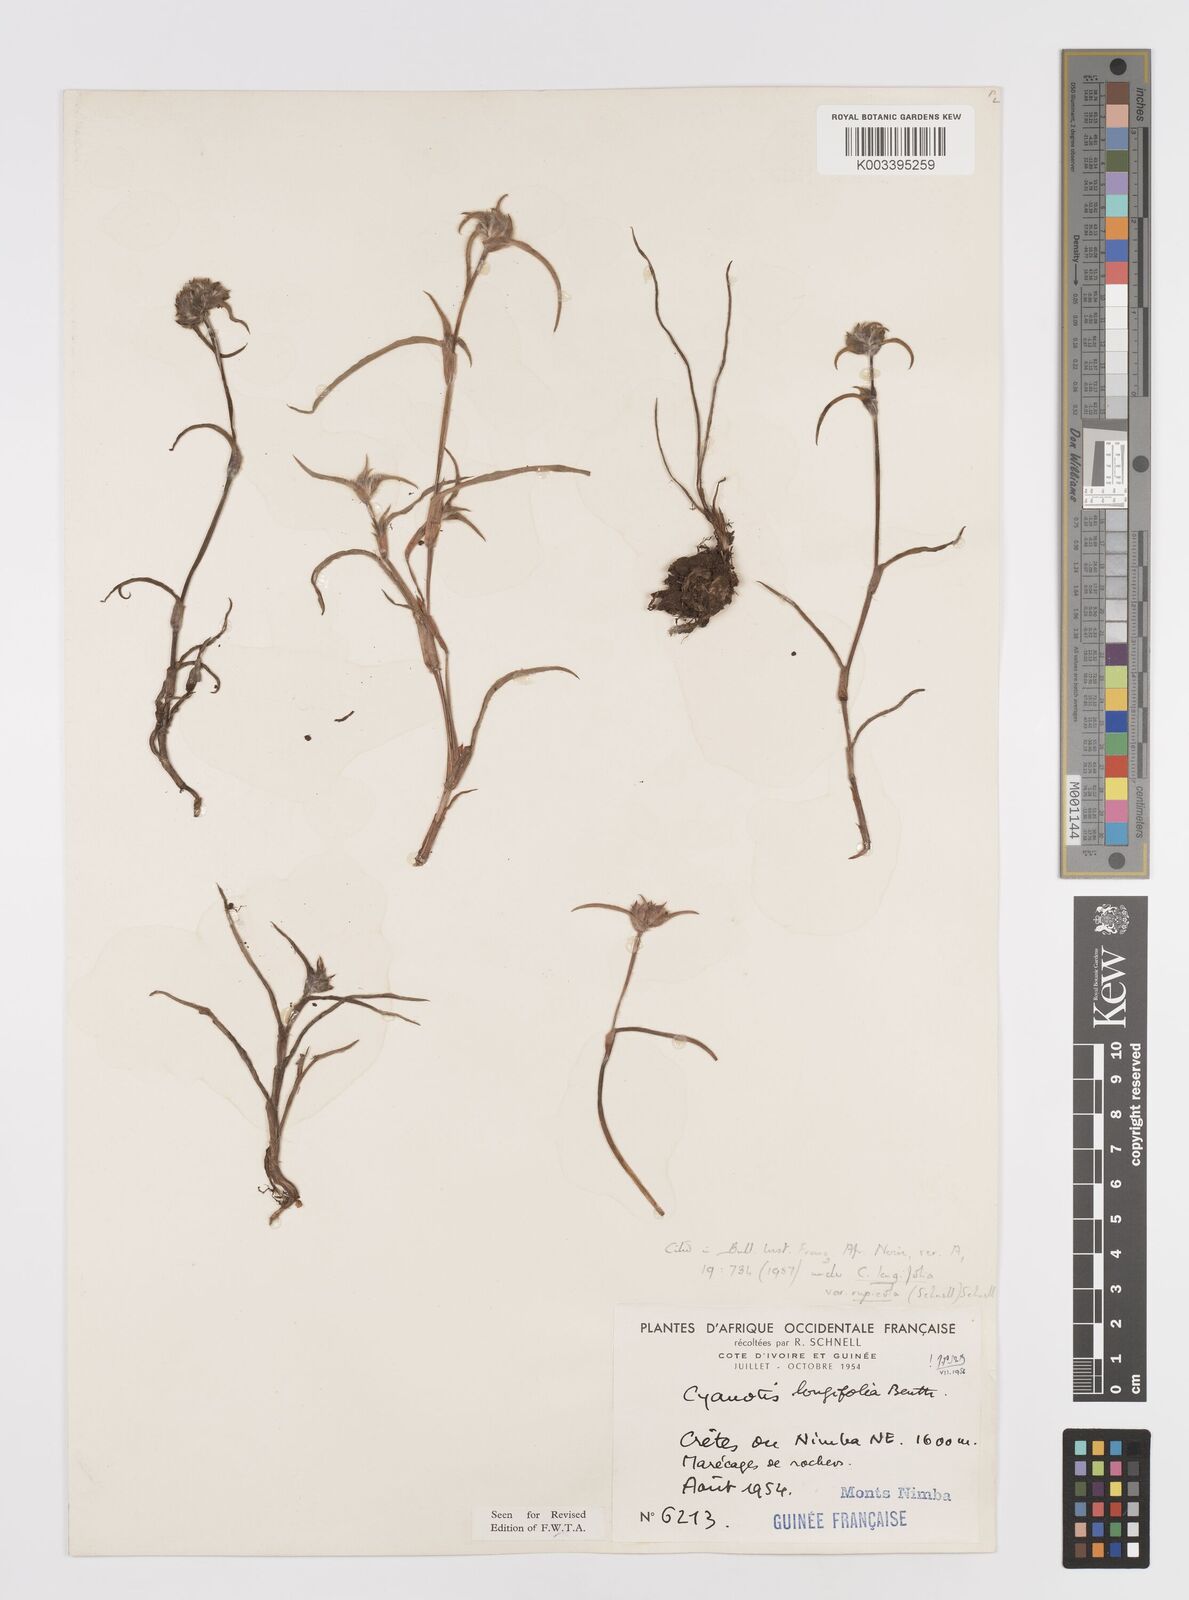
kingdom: Plantae
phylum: Tracheophyta
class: Liliopsida
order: Commelinales
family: Commelinaceae
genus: Cyanotis
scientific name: Cyanotis longifolia
